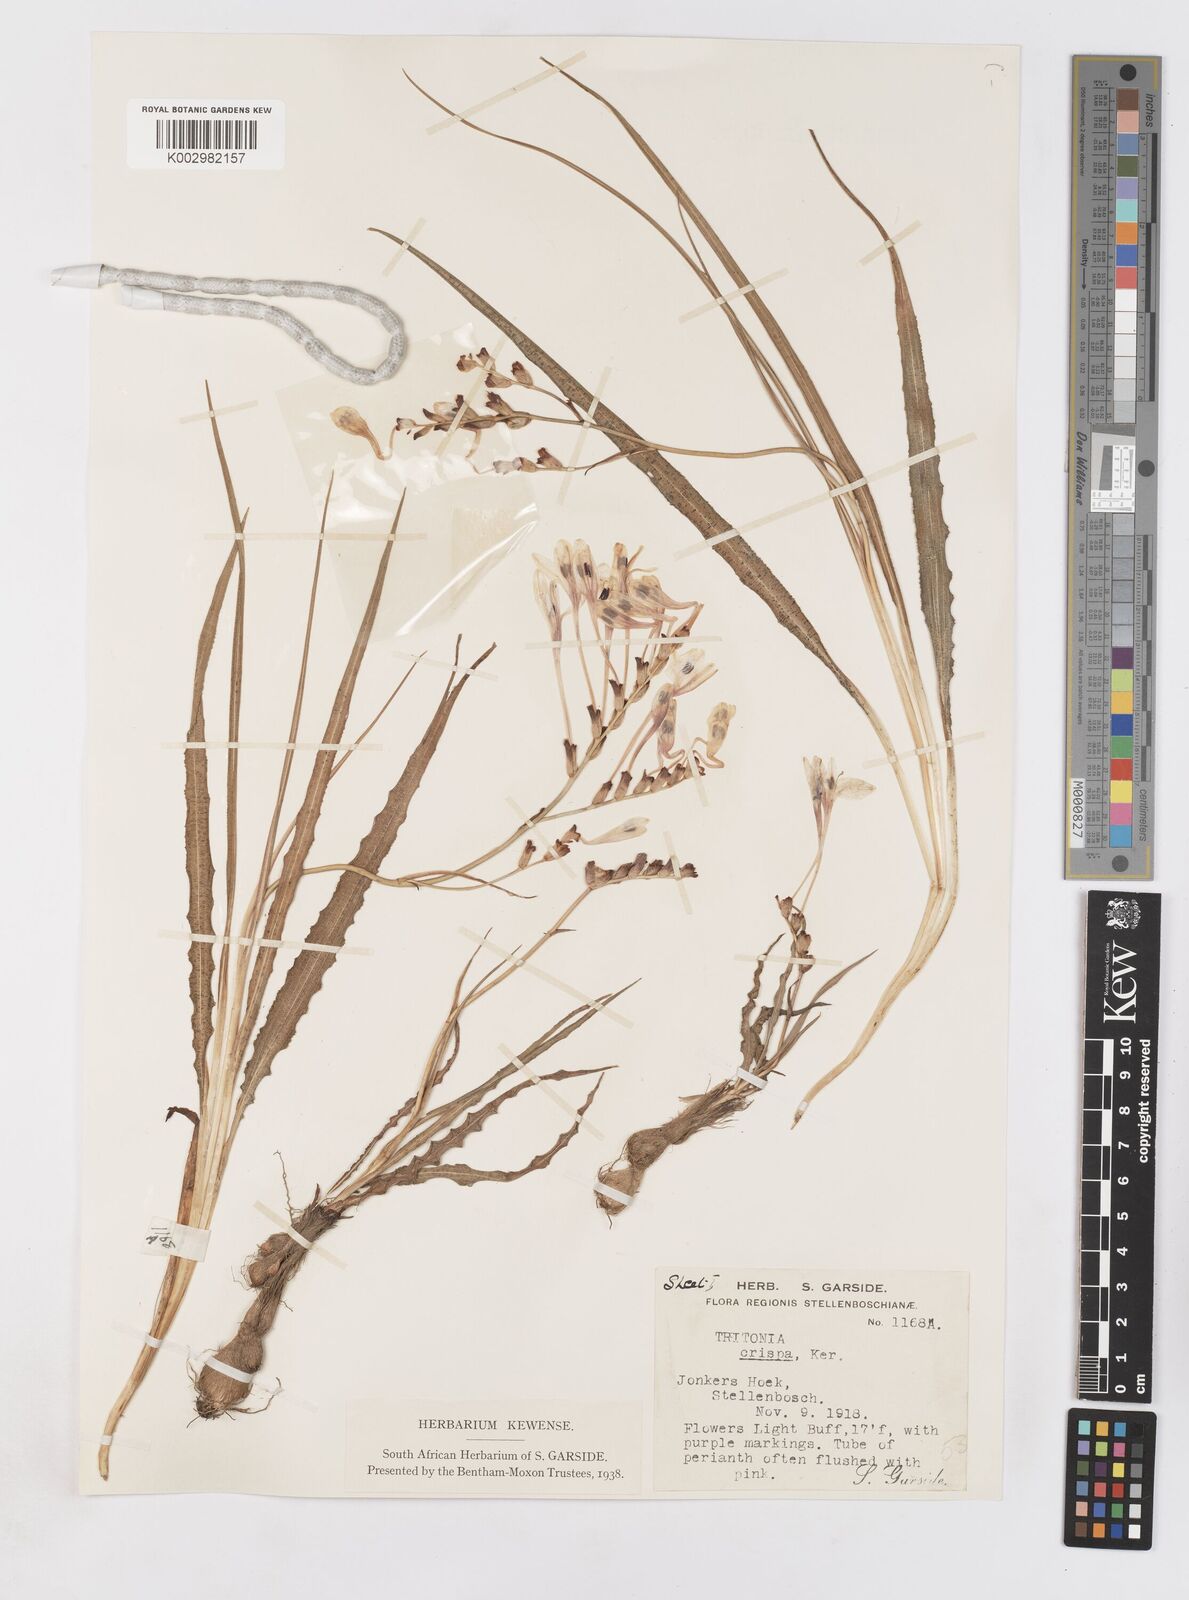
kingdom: Plantae
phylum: Tracheophyta
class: Liliopsida
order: Asparagales
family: Iridaceae
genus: Tritonia
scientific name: Tritonia undulata
